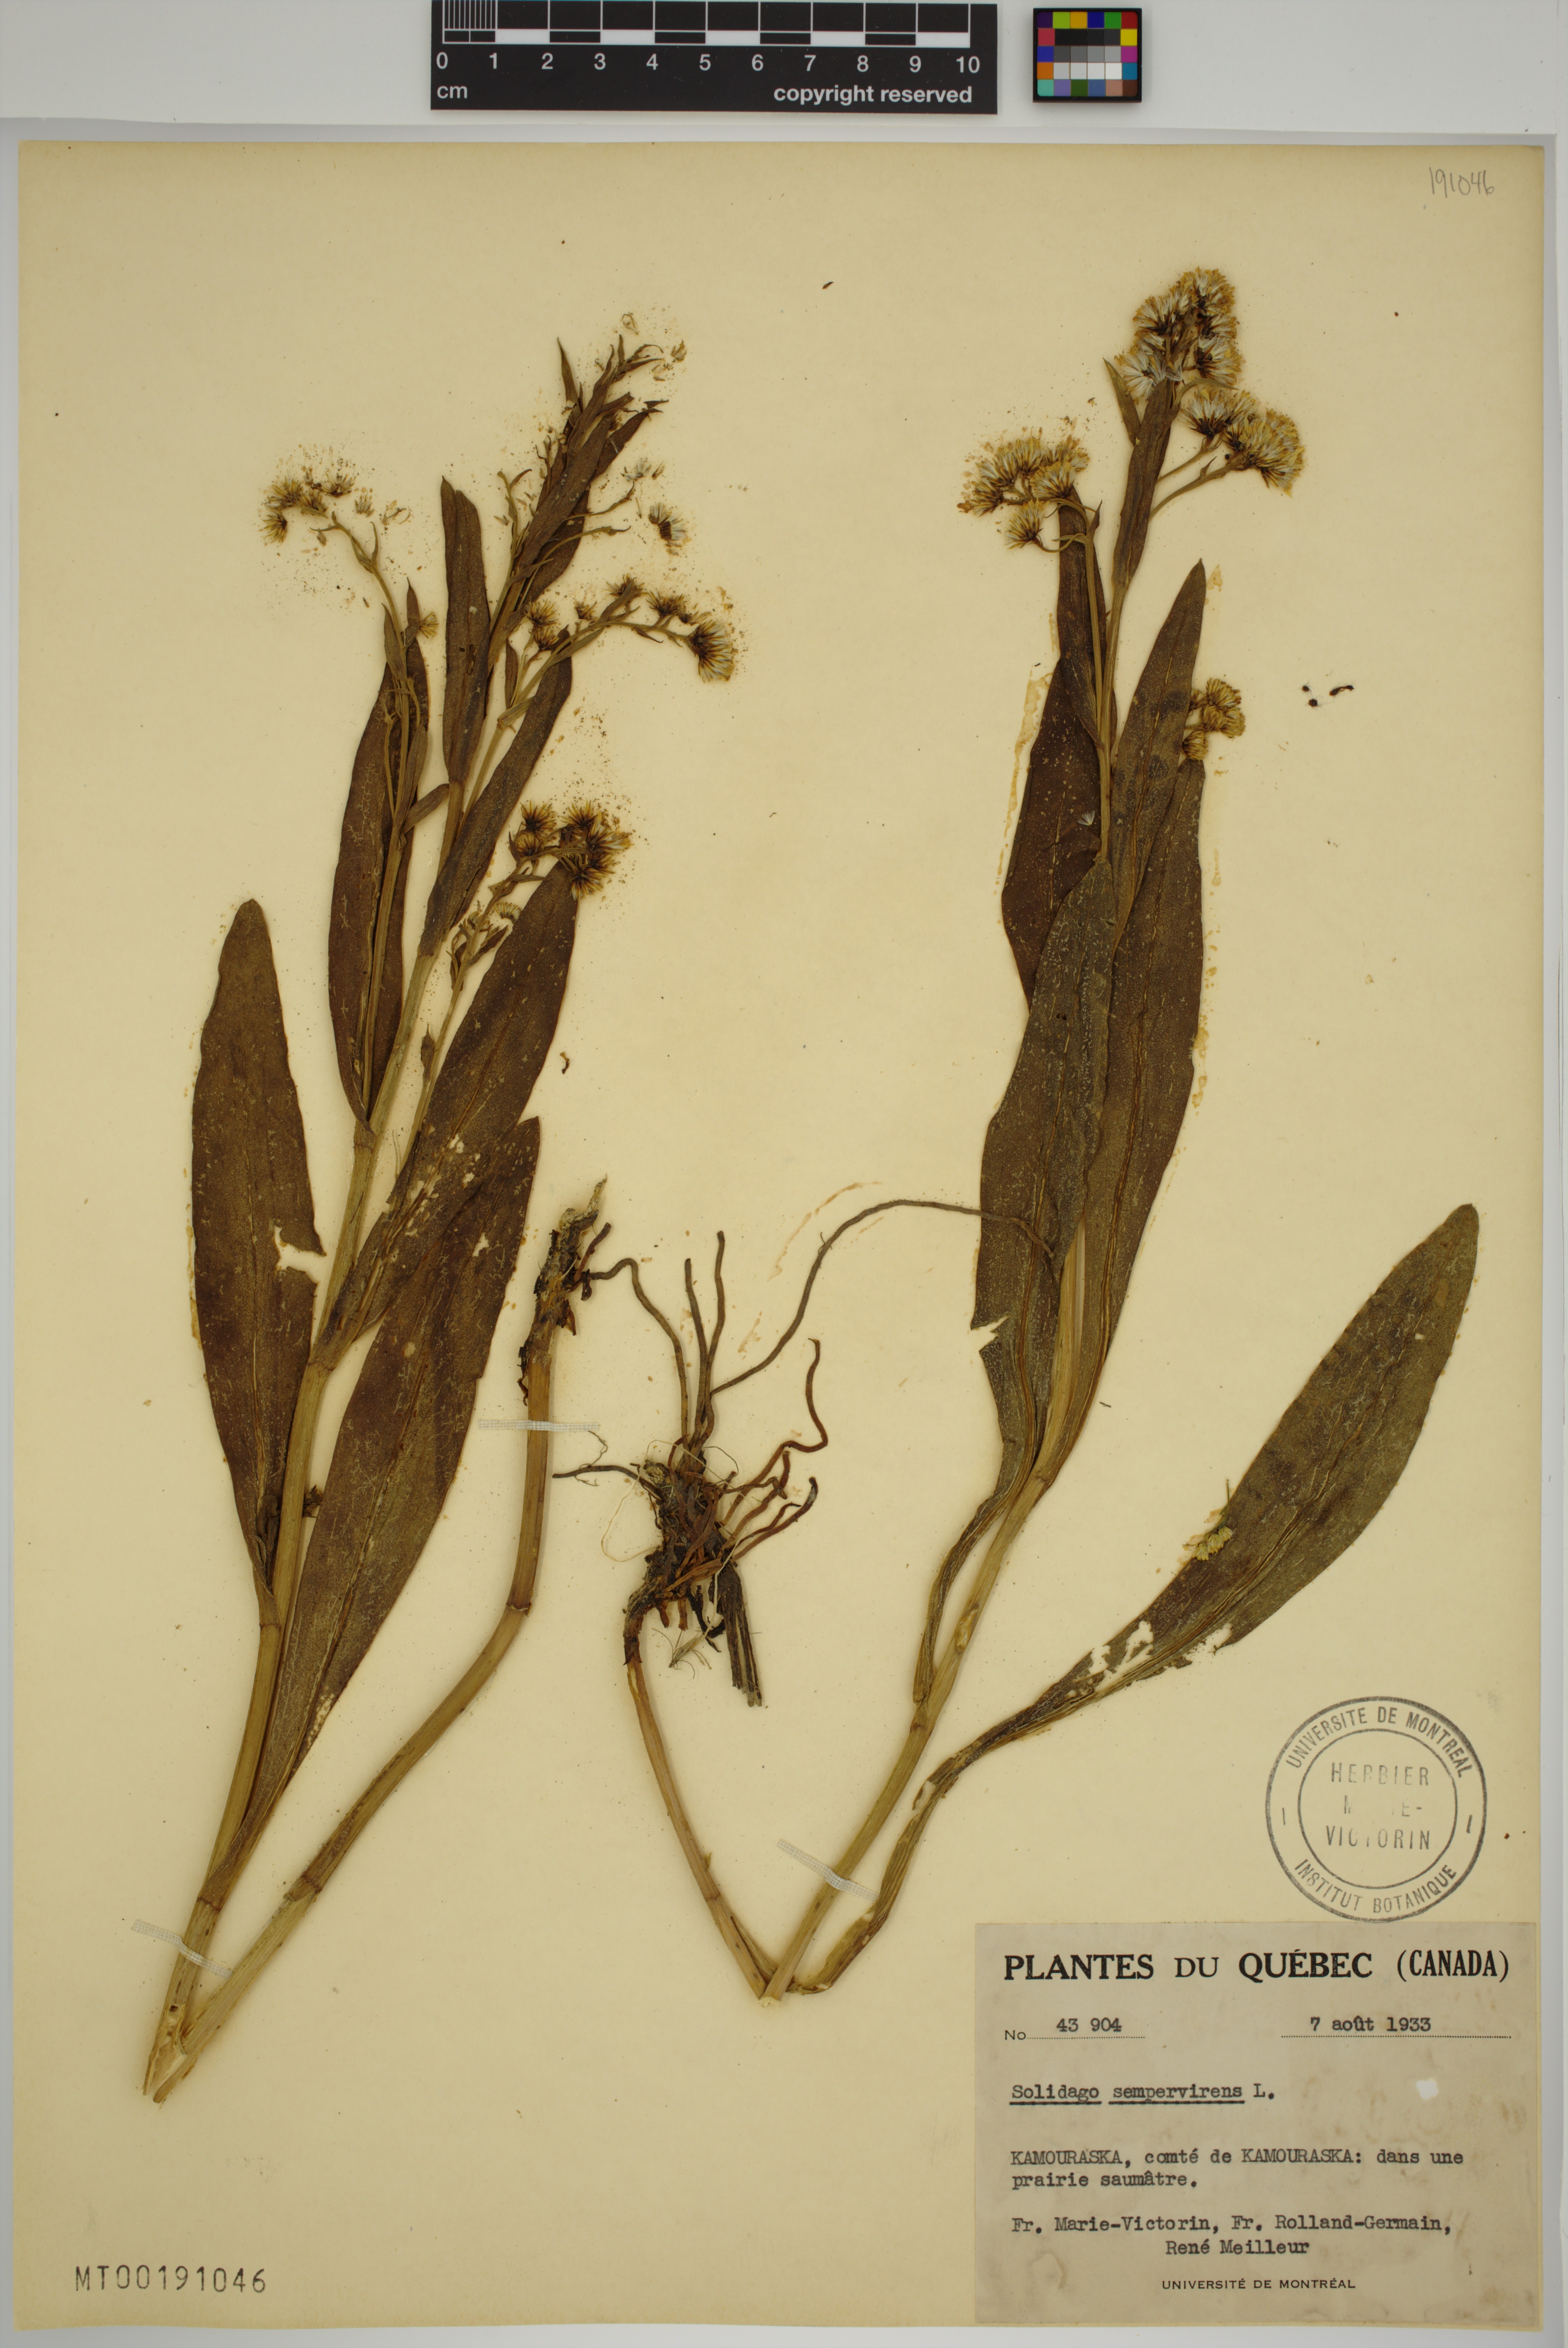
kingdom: Plantae
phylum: Tracheophyta
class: Magnoliopsida
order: Asterales
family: Asteraceae
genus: Solidago
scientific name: Solidago sempervirens
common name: Salt-marsh goldenrod
